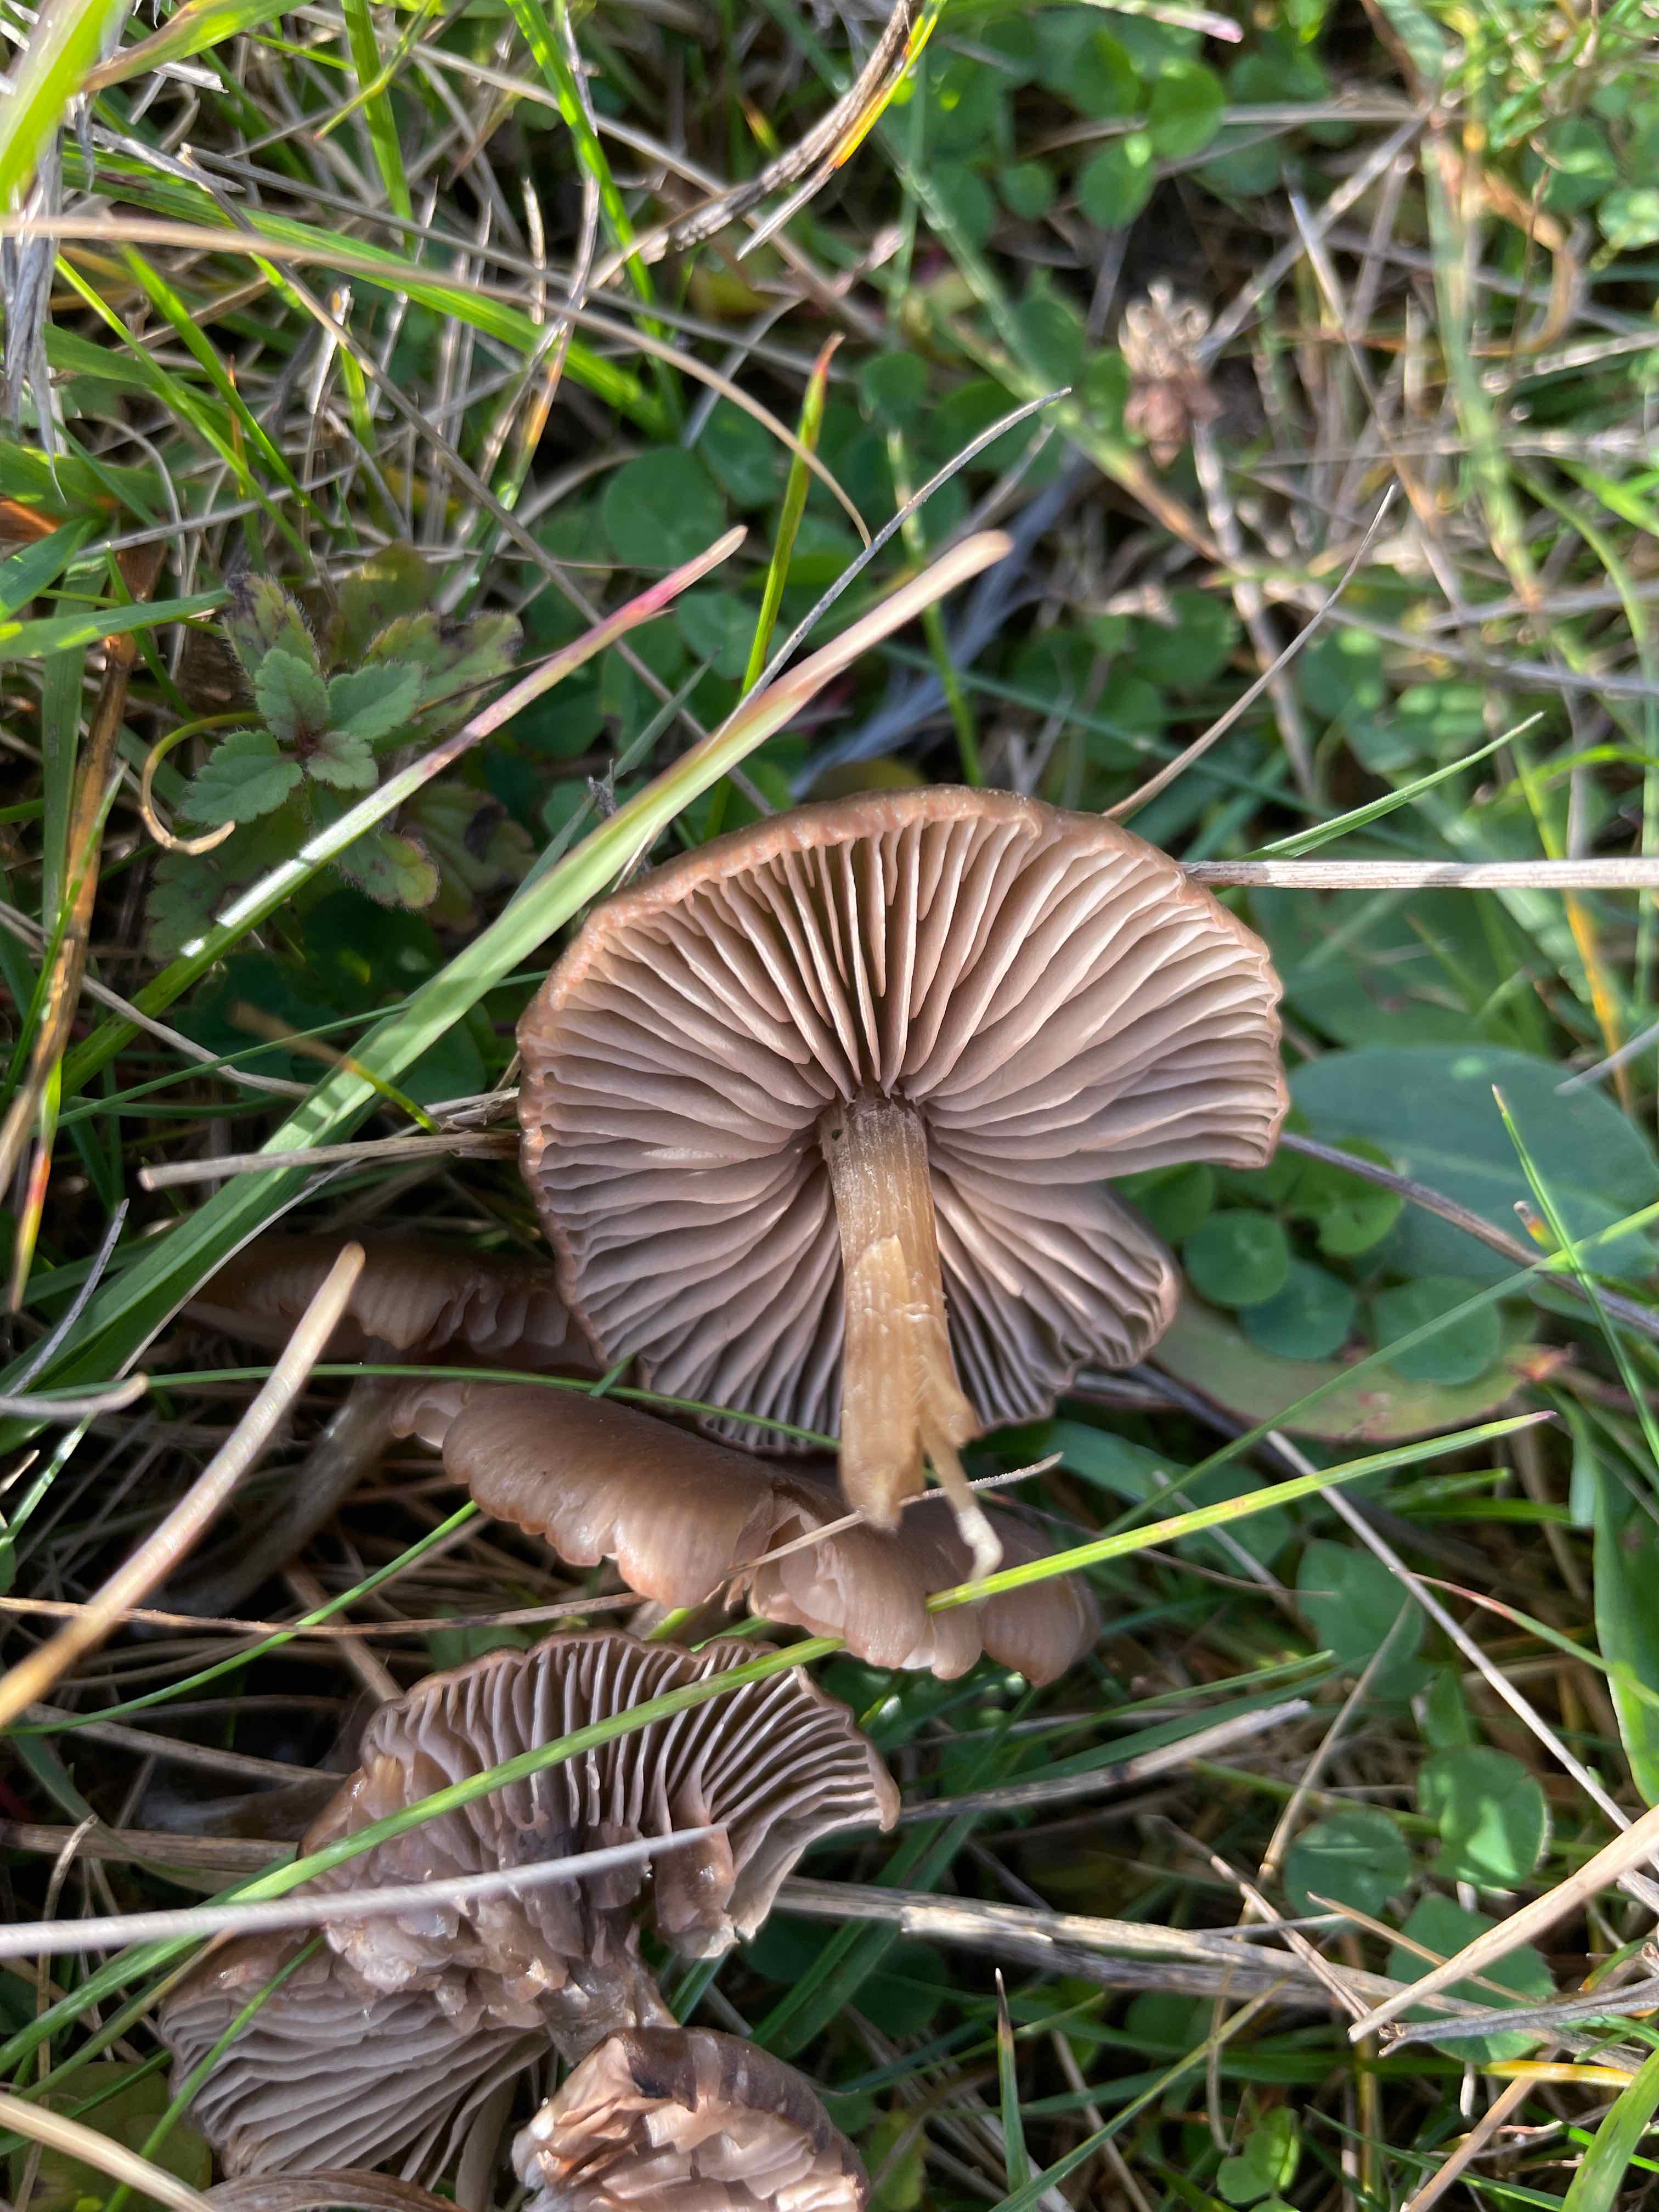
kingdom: Fungi
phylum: Basidiomycota
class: Agaricomycetes
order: Agaricales
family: Entolomataceae
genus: Entoloma
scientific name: Entoloma
